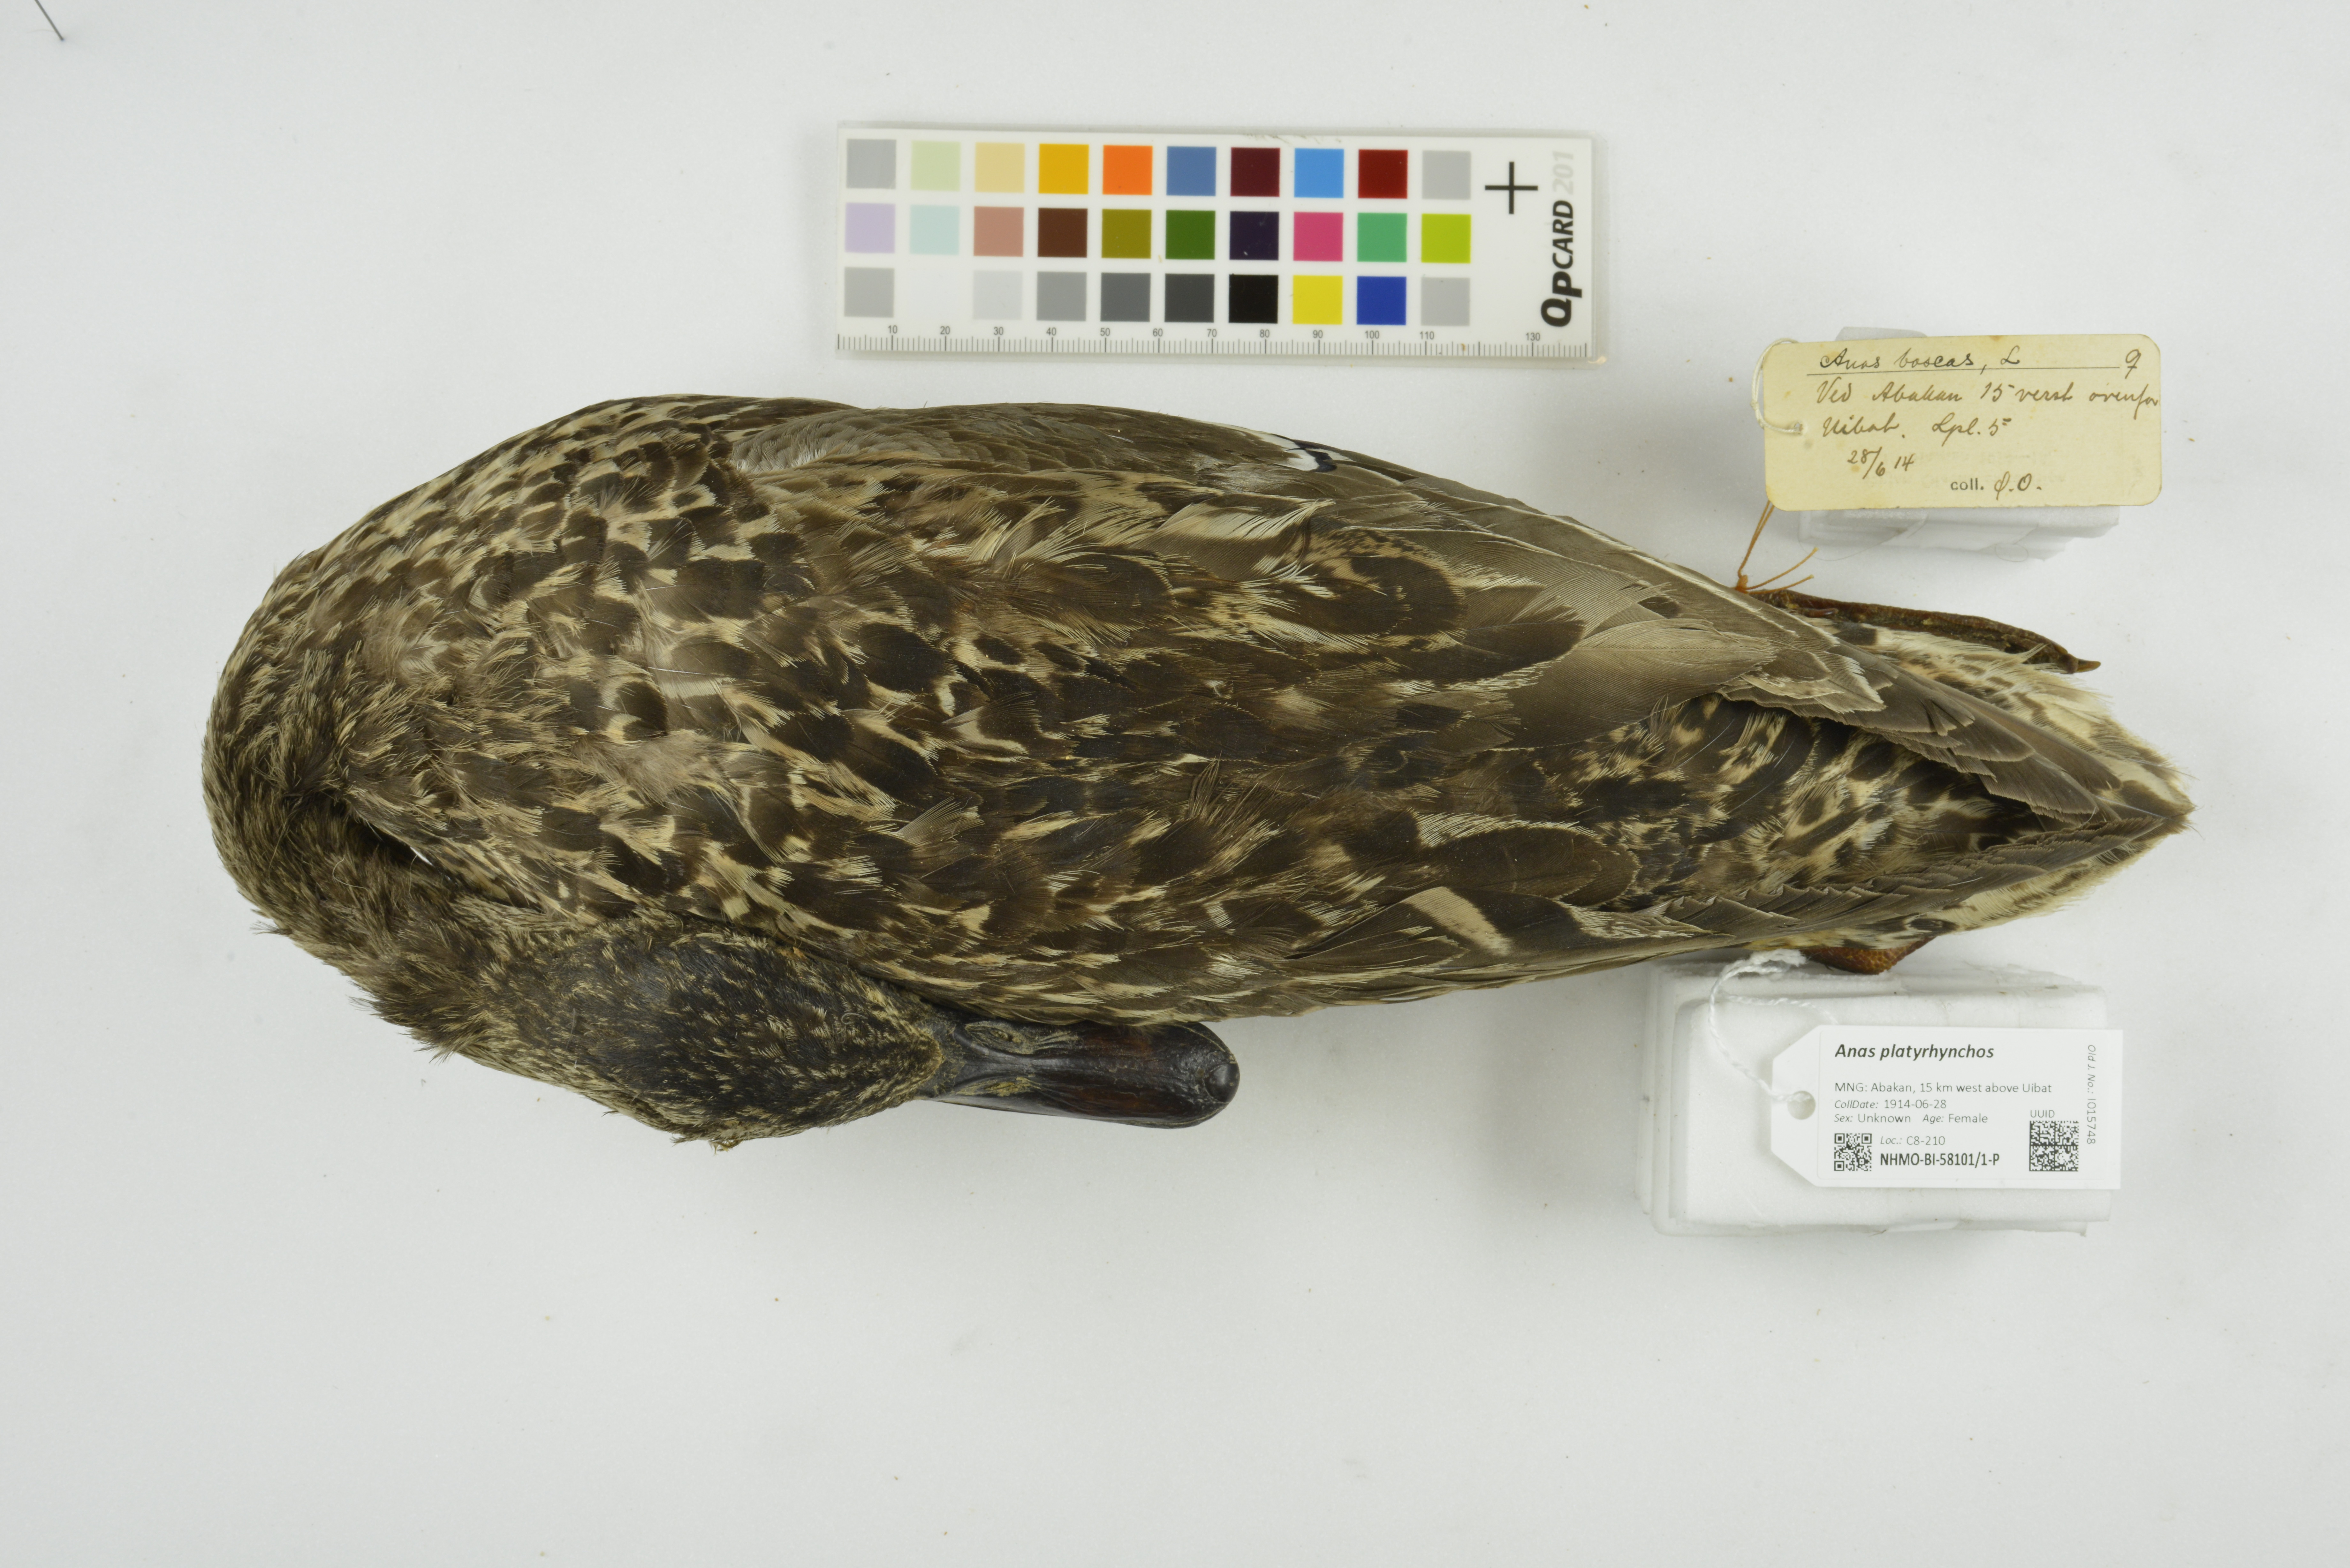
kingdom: Animalia
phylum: Chordata
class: Aves
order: Anseriformes
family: Anatidae
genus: Anas
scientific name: Anas platyrhynchos
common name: Mallard
